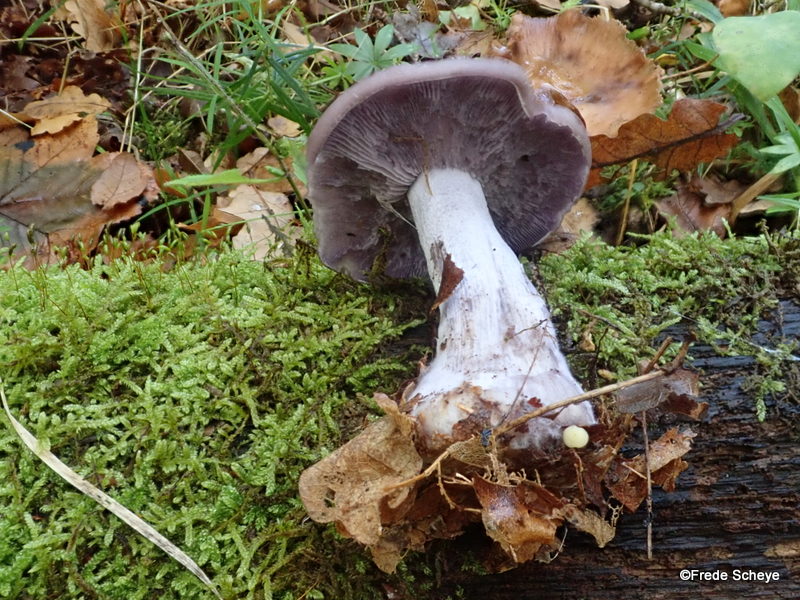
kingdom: Fungi
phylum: Basidiomycota
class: Agaricomycetes
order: Agaricales
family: Tricholomataceae
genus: Lepista
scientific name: Lepista nuda
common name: violet hekseringshat
